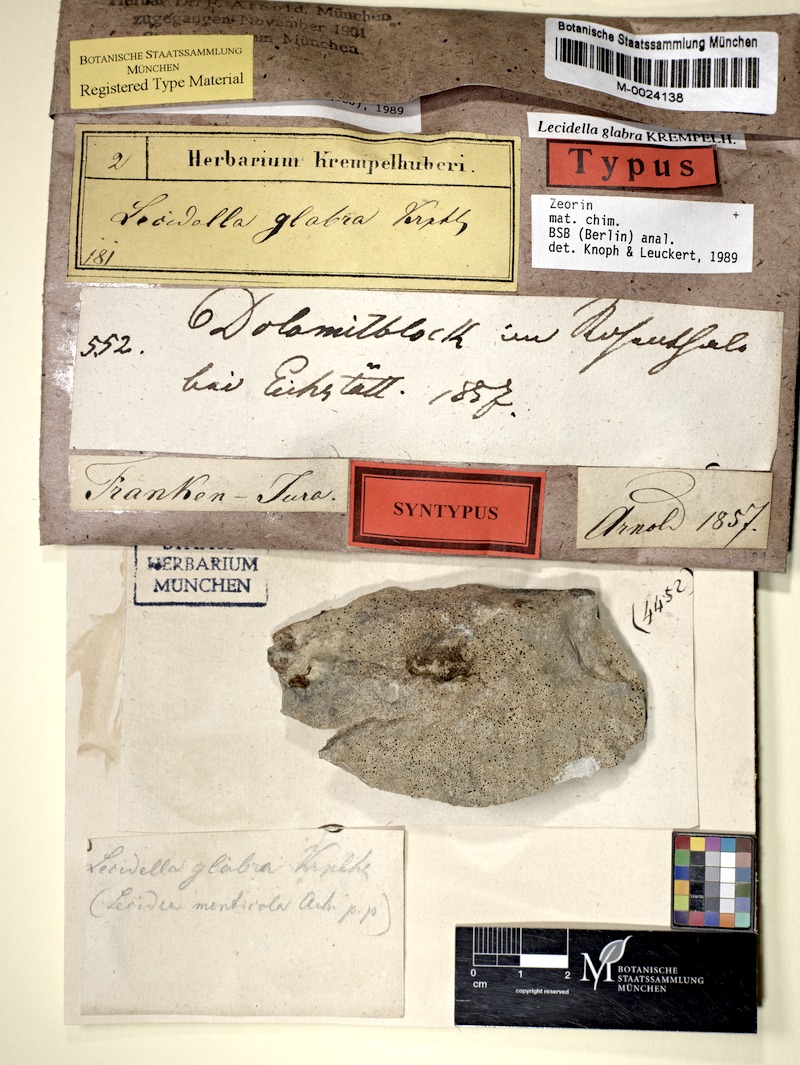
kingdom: Fungi
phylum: Ascomycota
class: Lecanoromycetes
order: Lecanorales
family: Lecanoraceae
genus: Lecidella
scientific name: Lecidella stigmatea
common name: Limestone disc lichen
